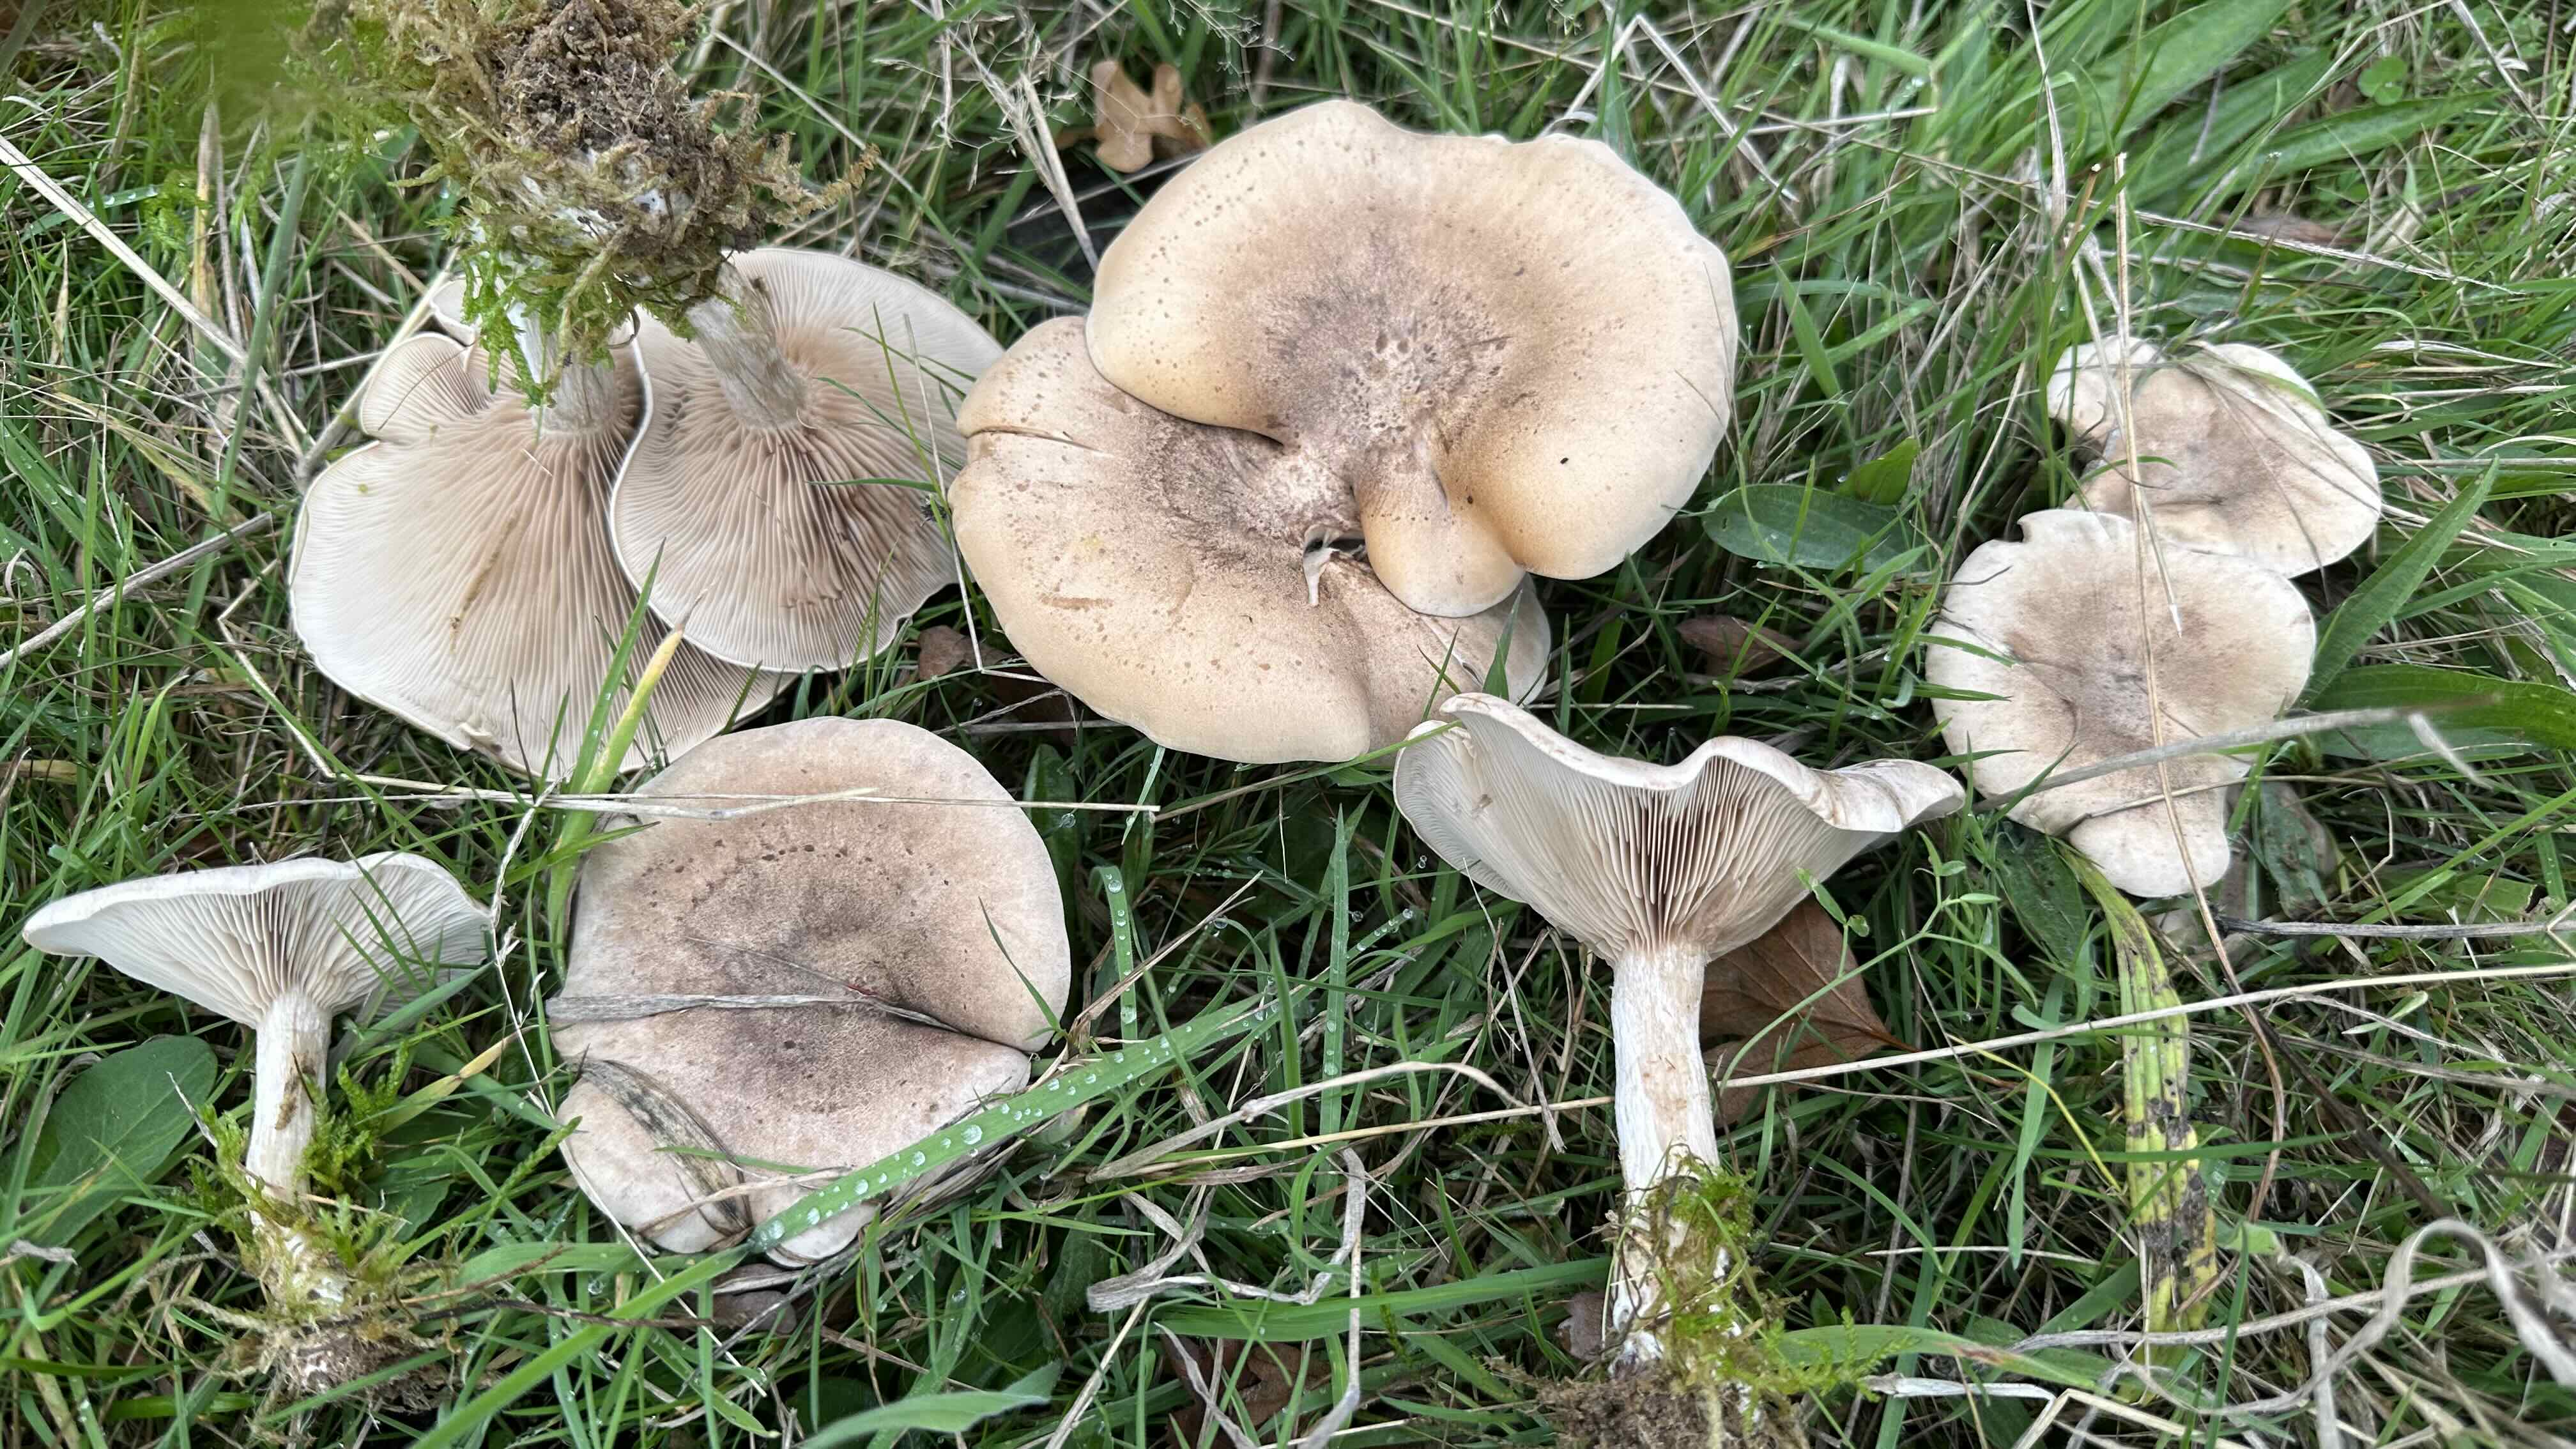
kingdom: Fungi
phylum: Basidiomycota
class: Agaricomycetes
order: Agaricales
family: Tricholomataceae
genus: Lepista
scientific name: Lepista panaeolus
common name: marmoreret hekseringshat
